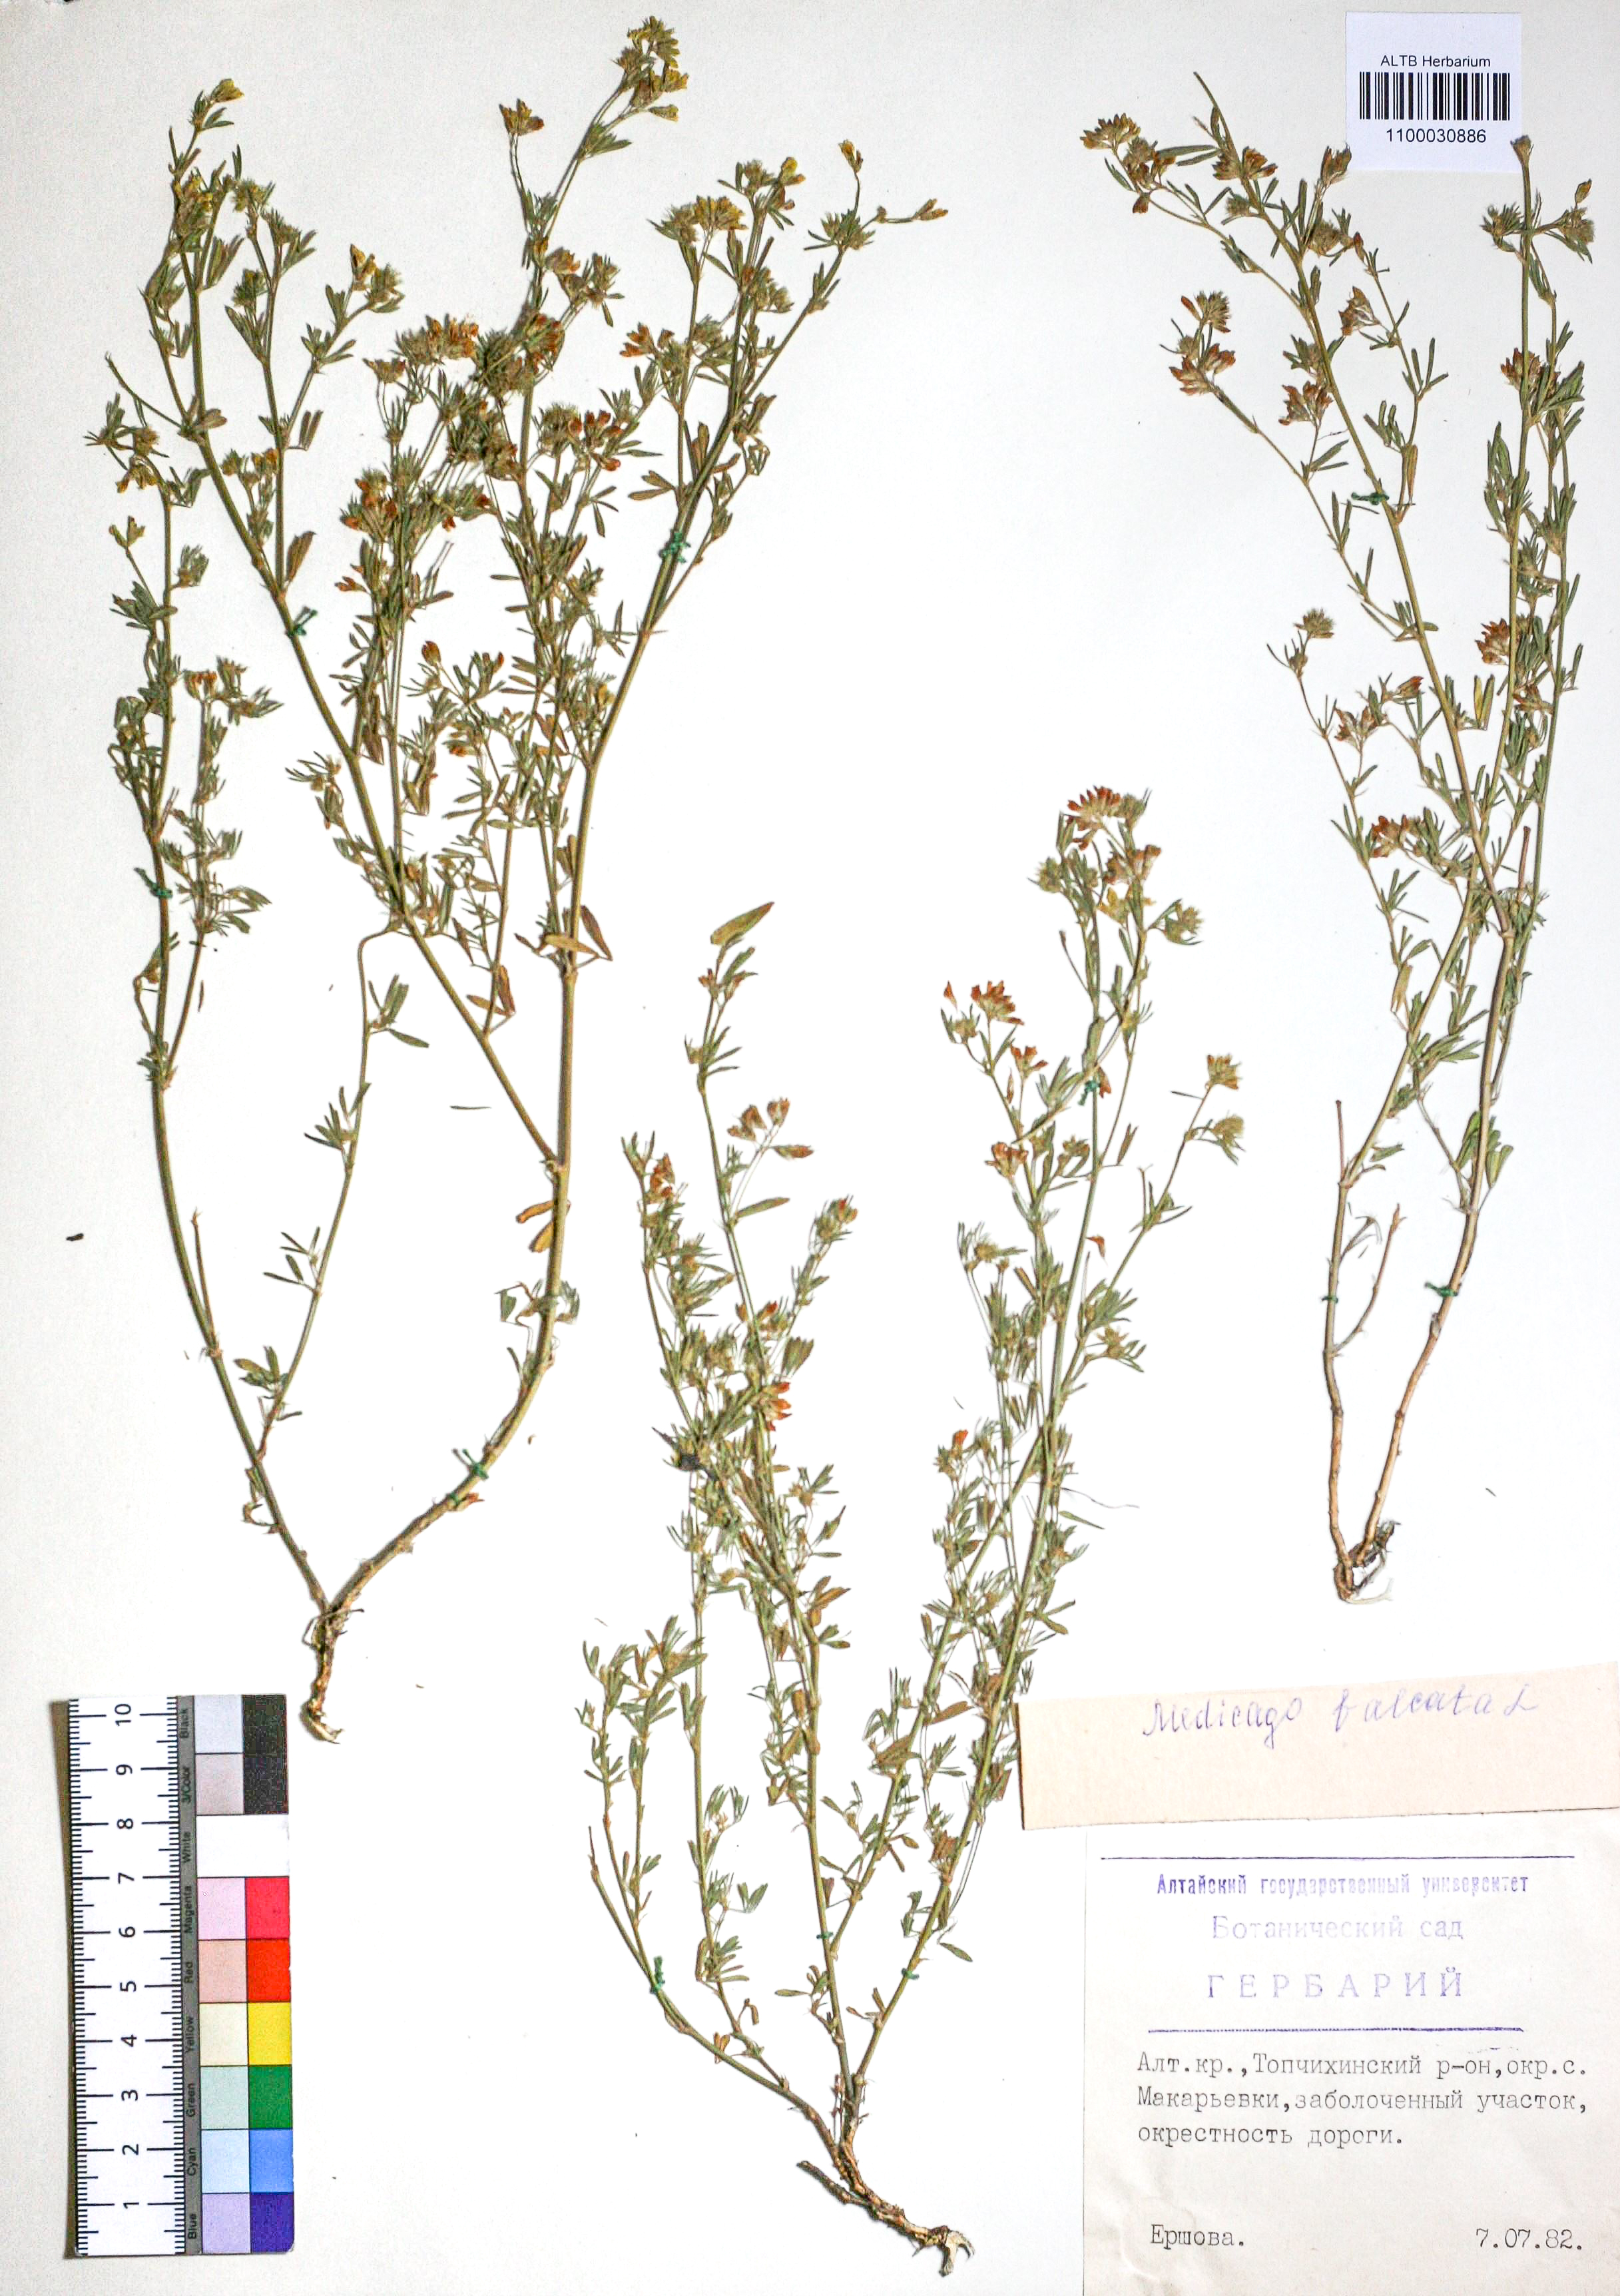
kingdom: Plantae
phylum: Tracheophyta
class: Magnoliopsida
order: Fabales
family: Fabaceae
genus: Medicago
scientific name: Medicago falcata
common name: Sickle medick
